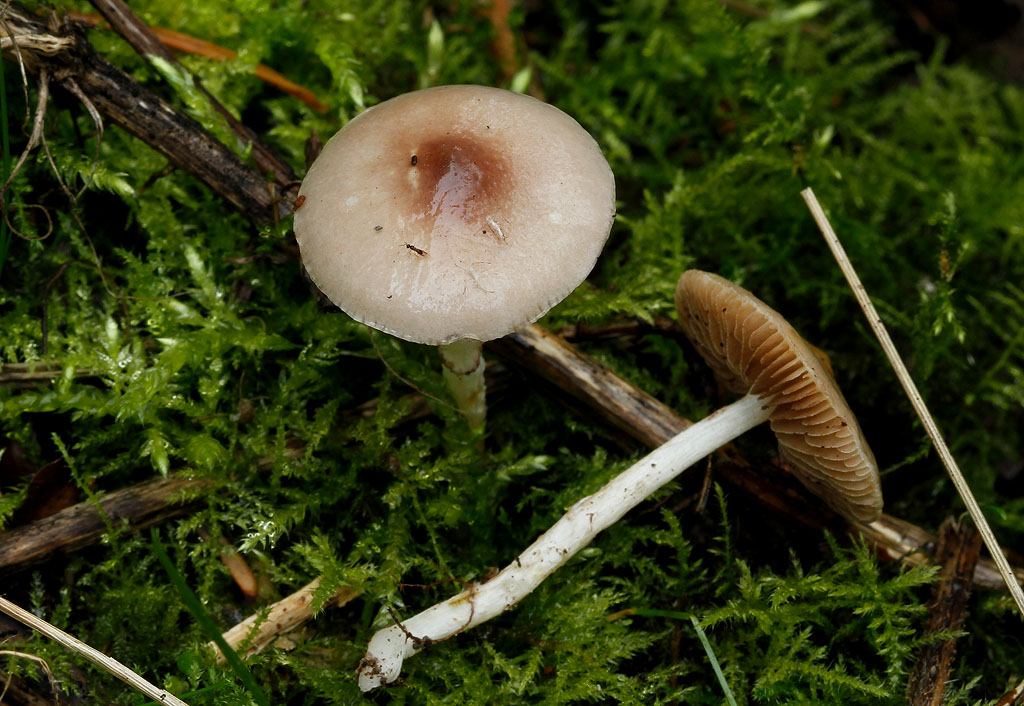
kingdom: Fungi
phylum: Basidiomycota
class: Agaricomycetes
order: Agaricales
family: Strophariaceae
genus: Stropharia
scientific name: Stropharia inuncta
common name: lillabrun bredblad
